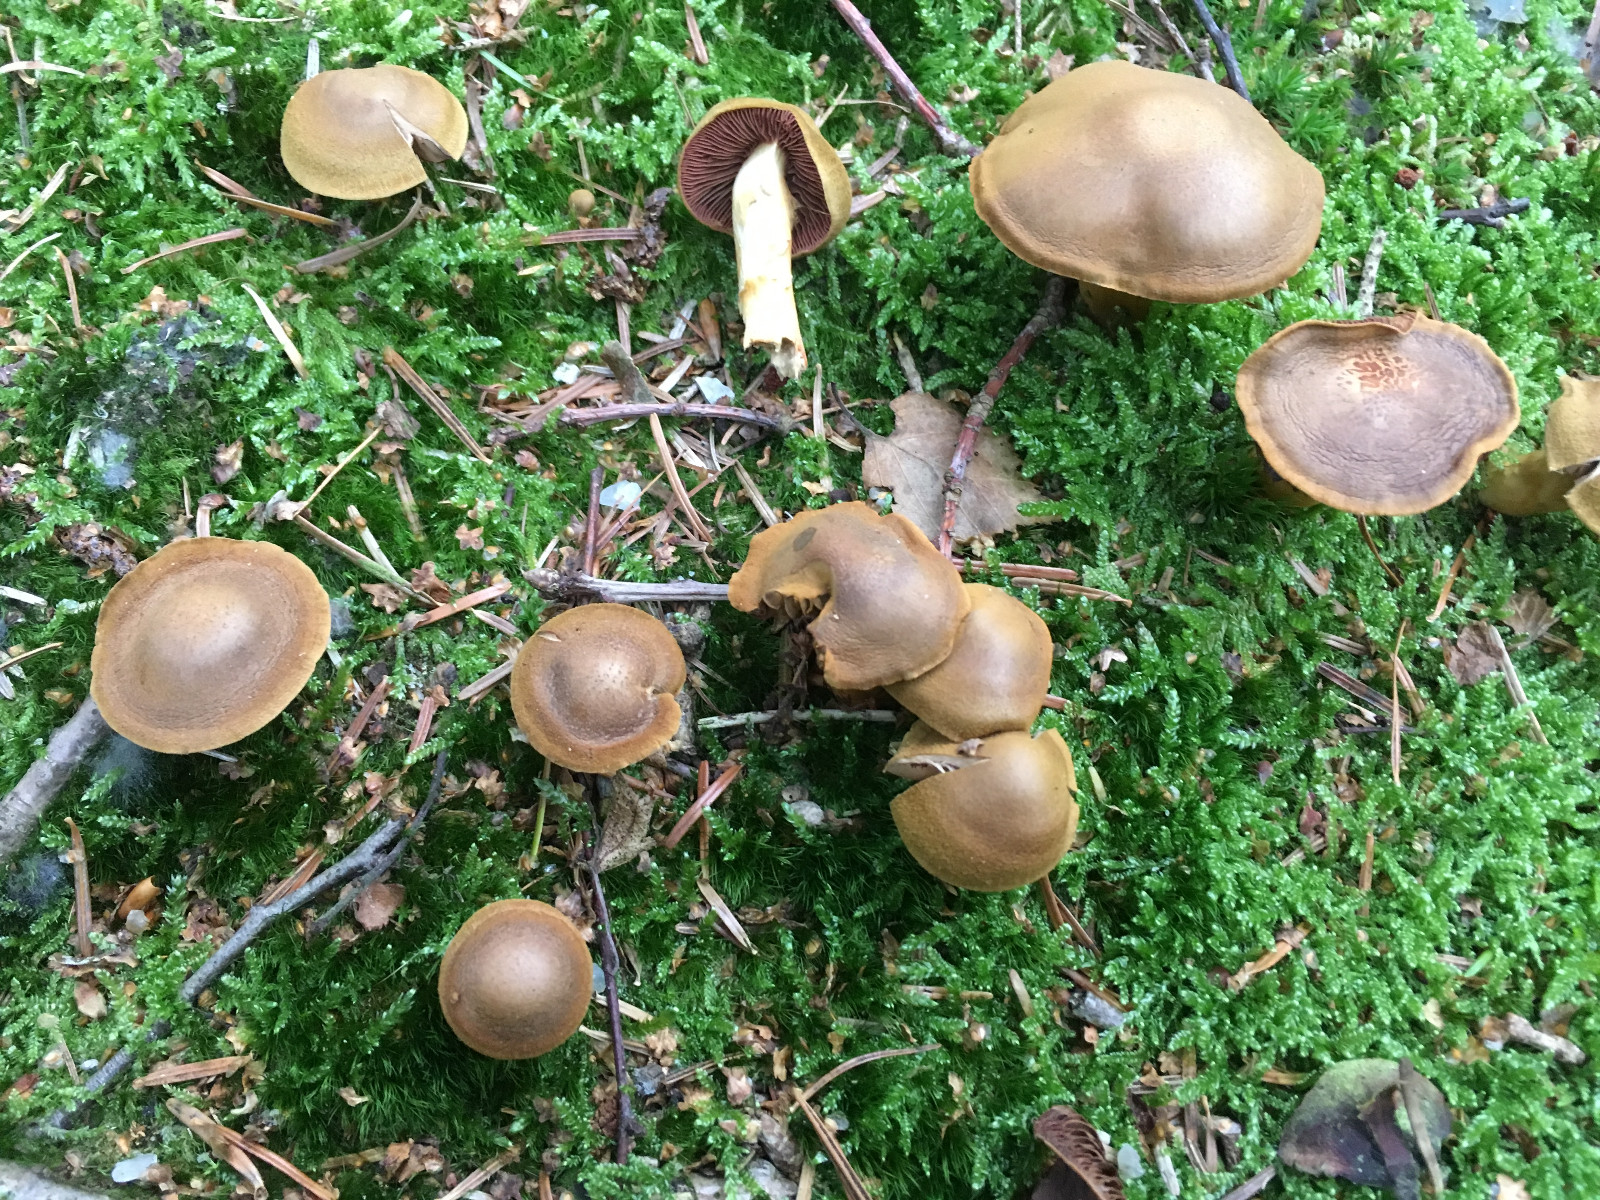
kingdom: Fungi
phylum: Basidiomycota
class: Agaricomycetes
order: Agaricales
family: Cortinariaceae
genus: Cortinarius
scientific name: Cortinarius
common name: cinnoberbladet slørhat
